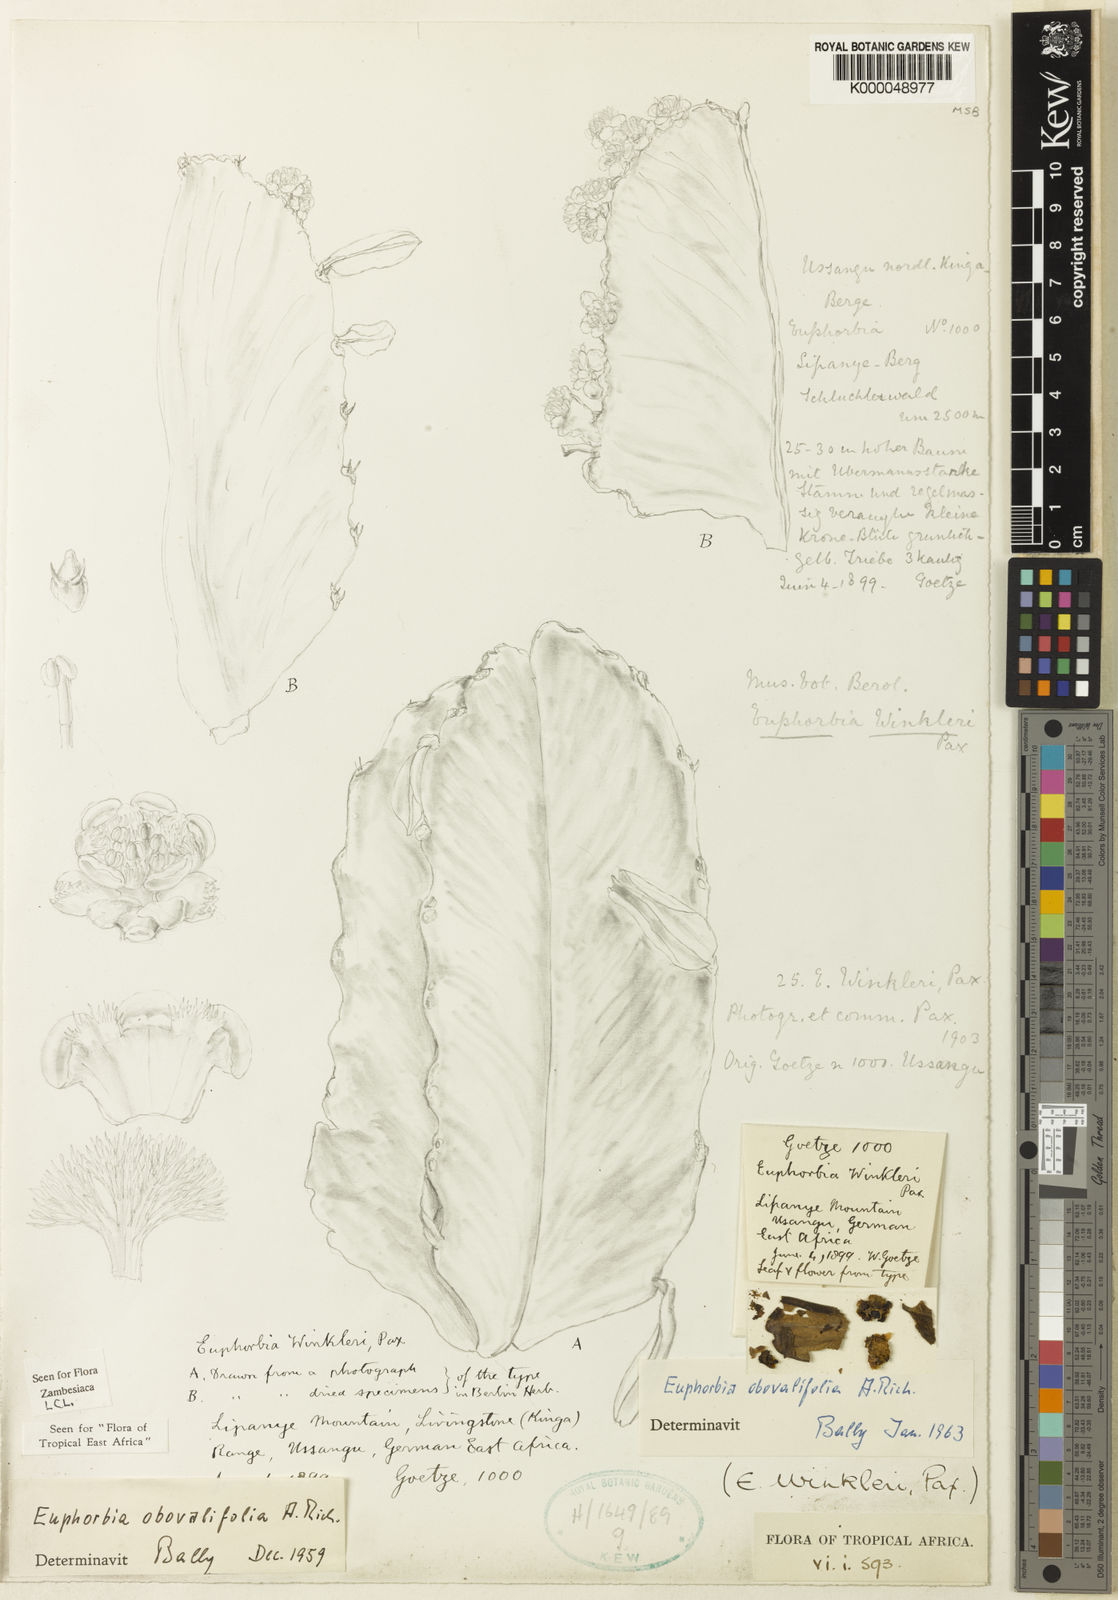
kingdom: Plantae
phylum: Tracheophyta
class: Magnoliopsida
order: Malpighiales
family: Euphorbiaceae
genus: Euphorbia
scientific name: Euphorbia ampliphylla
